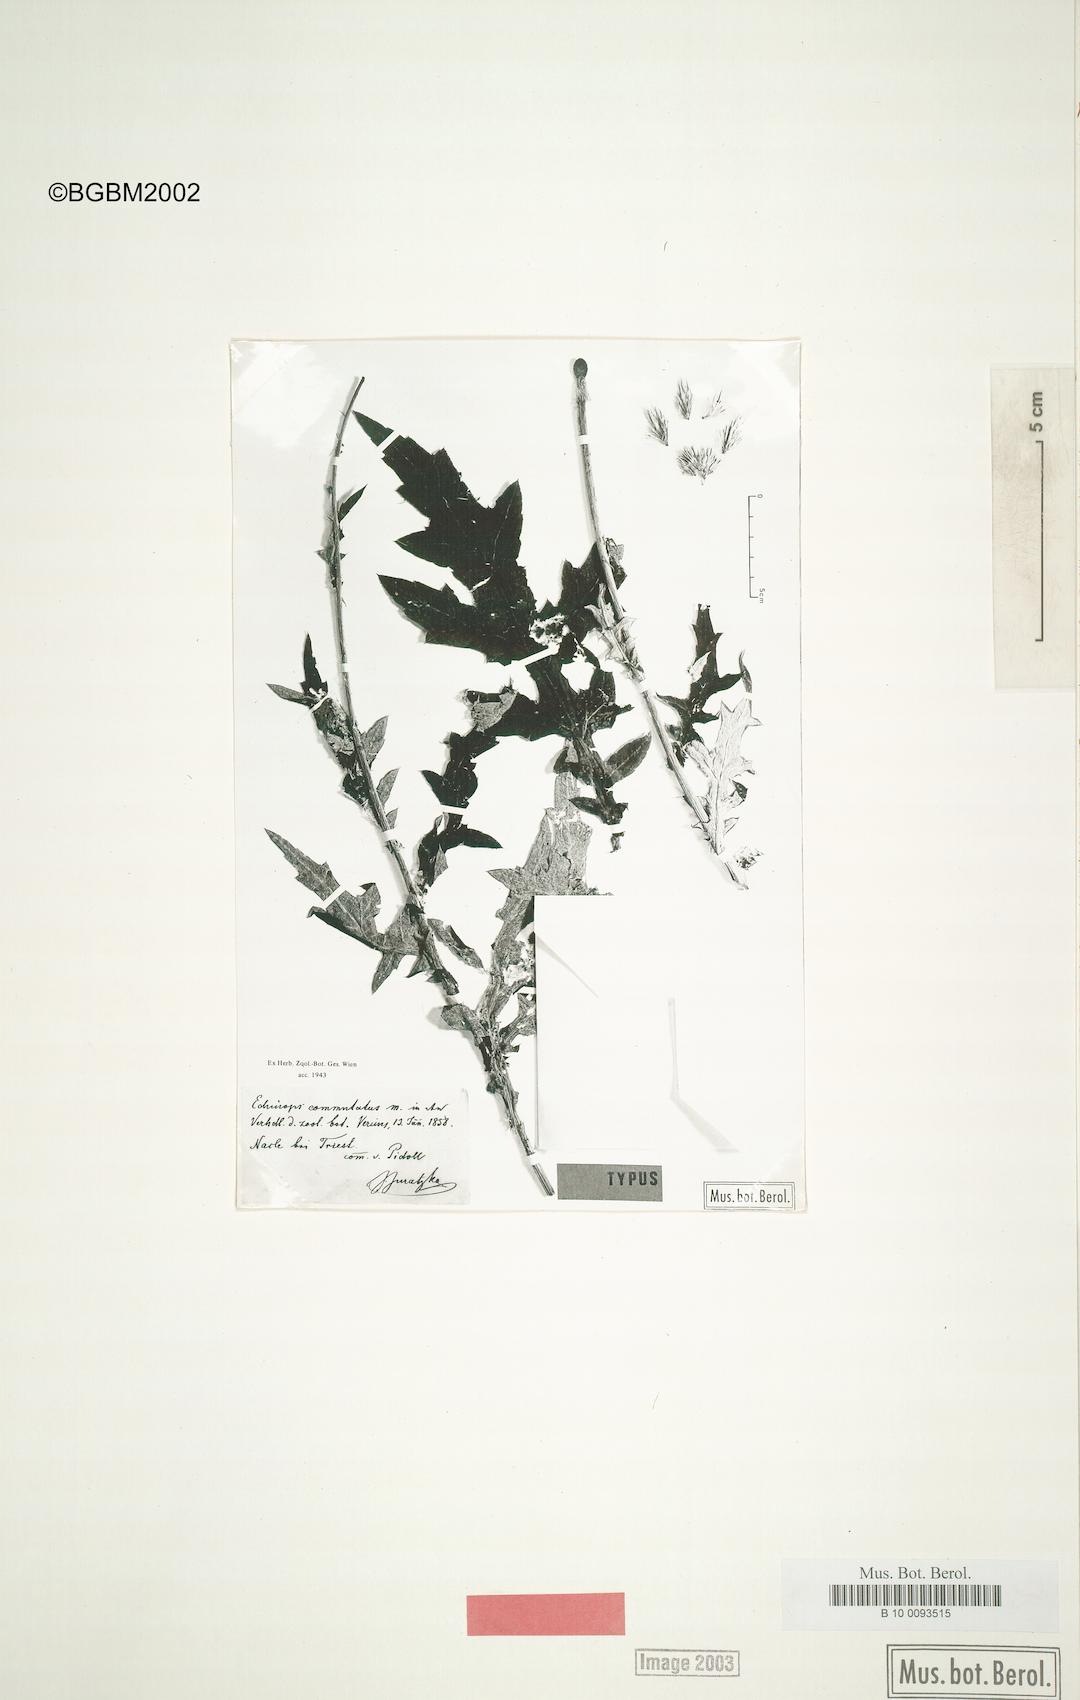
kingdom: Plantae
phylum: Tracheophyta
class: Magnoliopsida
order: Asterales
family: Asteraceae
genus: Echinops
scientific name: Echinops exaltatus
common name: Globe-thistle
